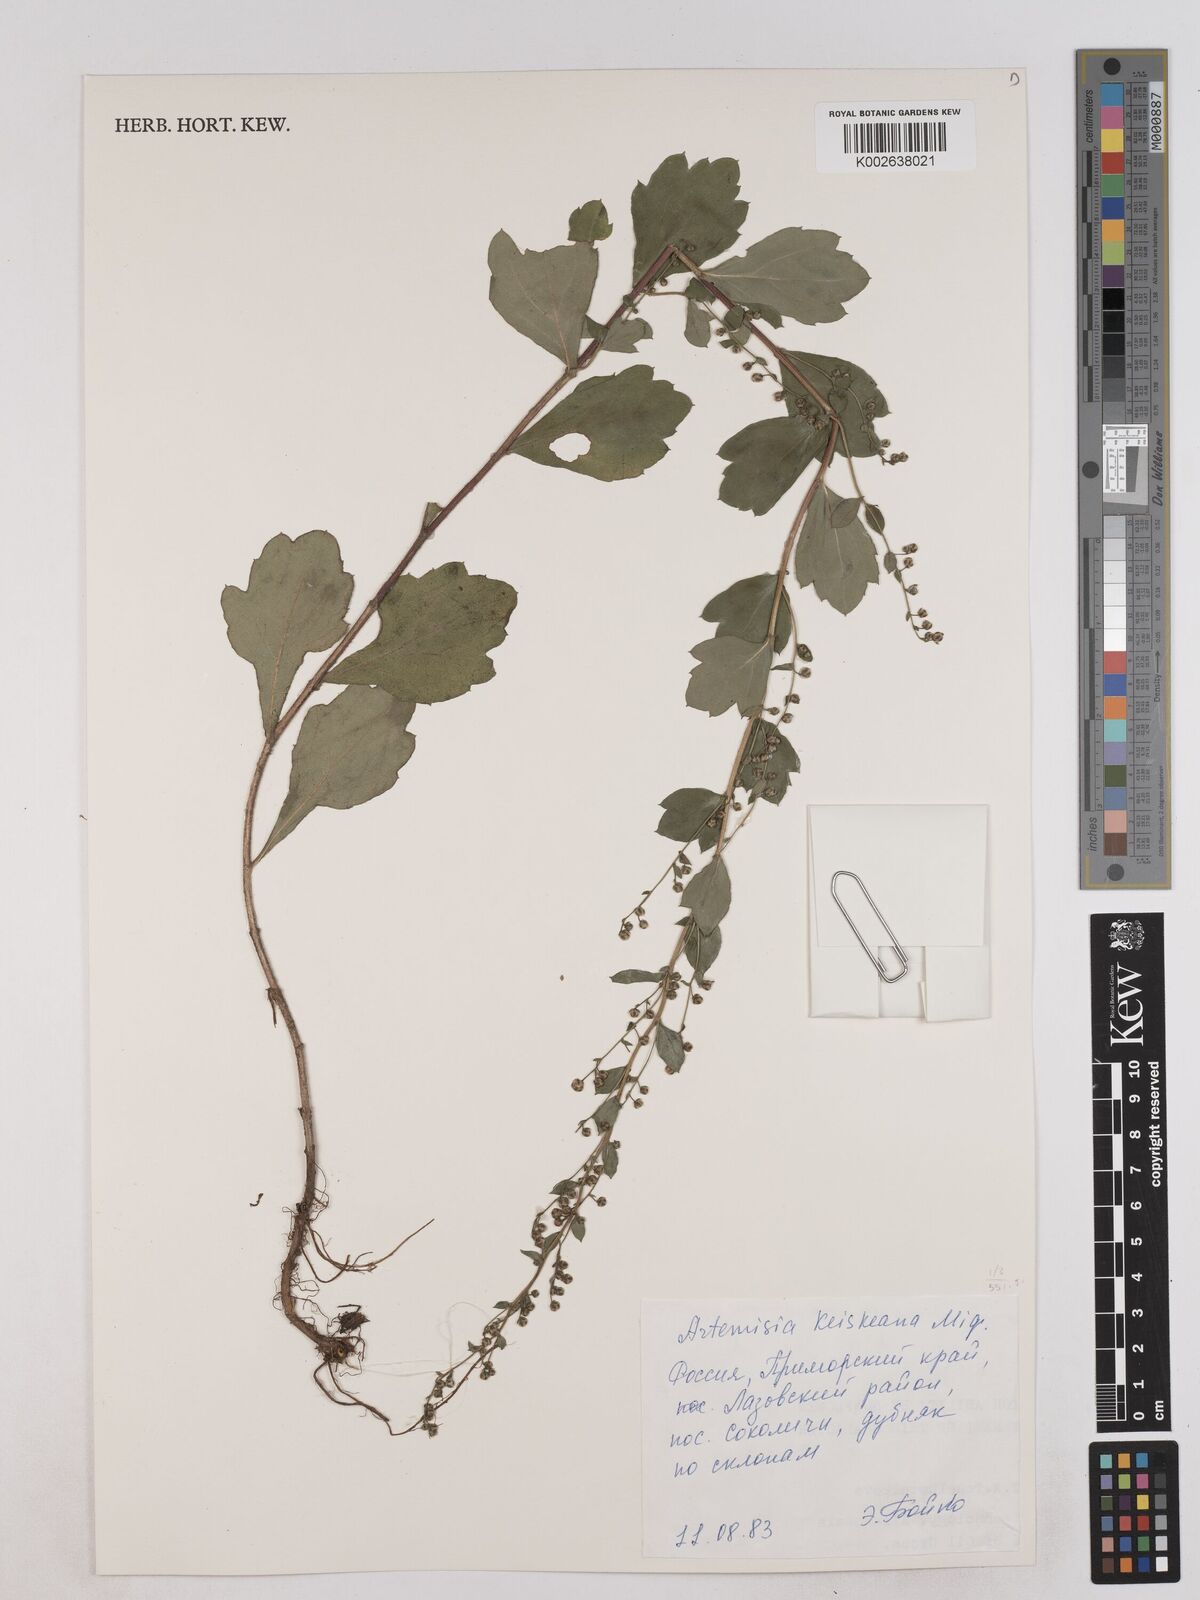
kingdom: Plantae
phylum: Tracheophyta
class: Magnoliopsida
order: Asterales
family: Asteraceae
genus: Artemisia
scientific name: Artemisia keiskeana
